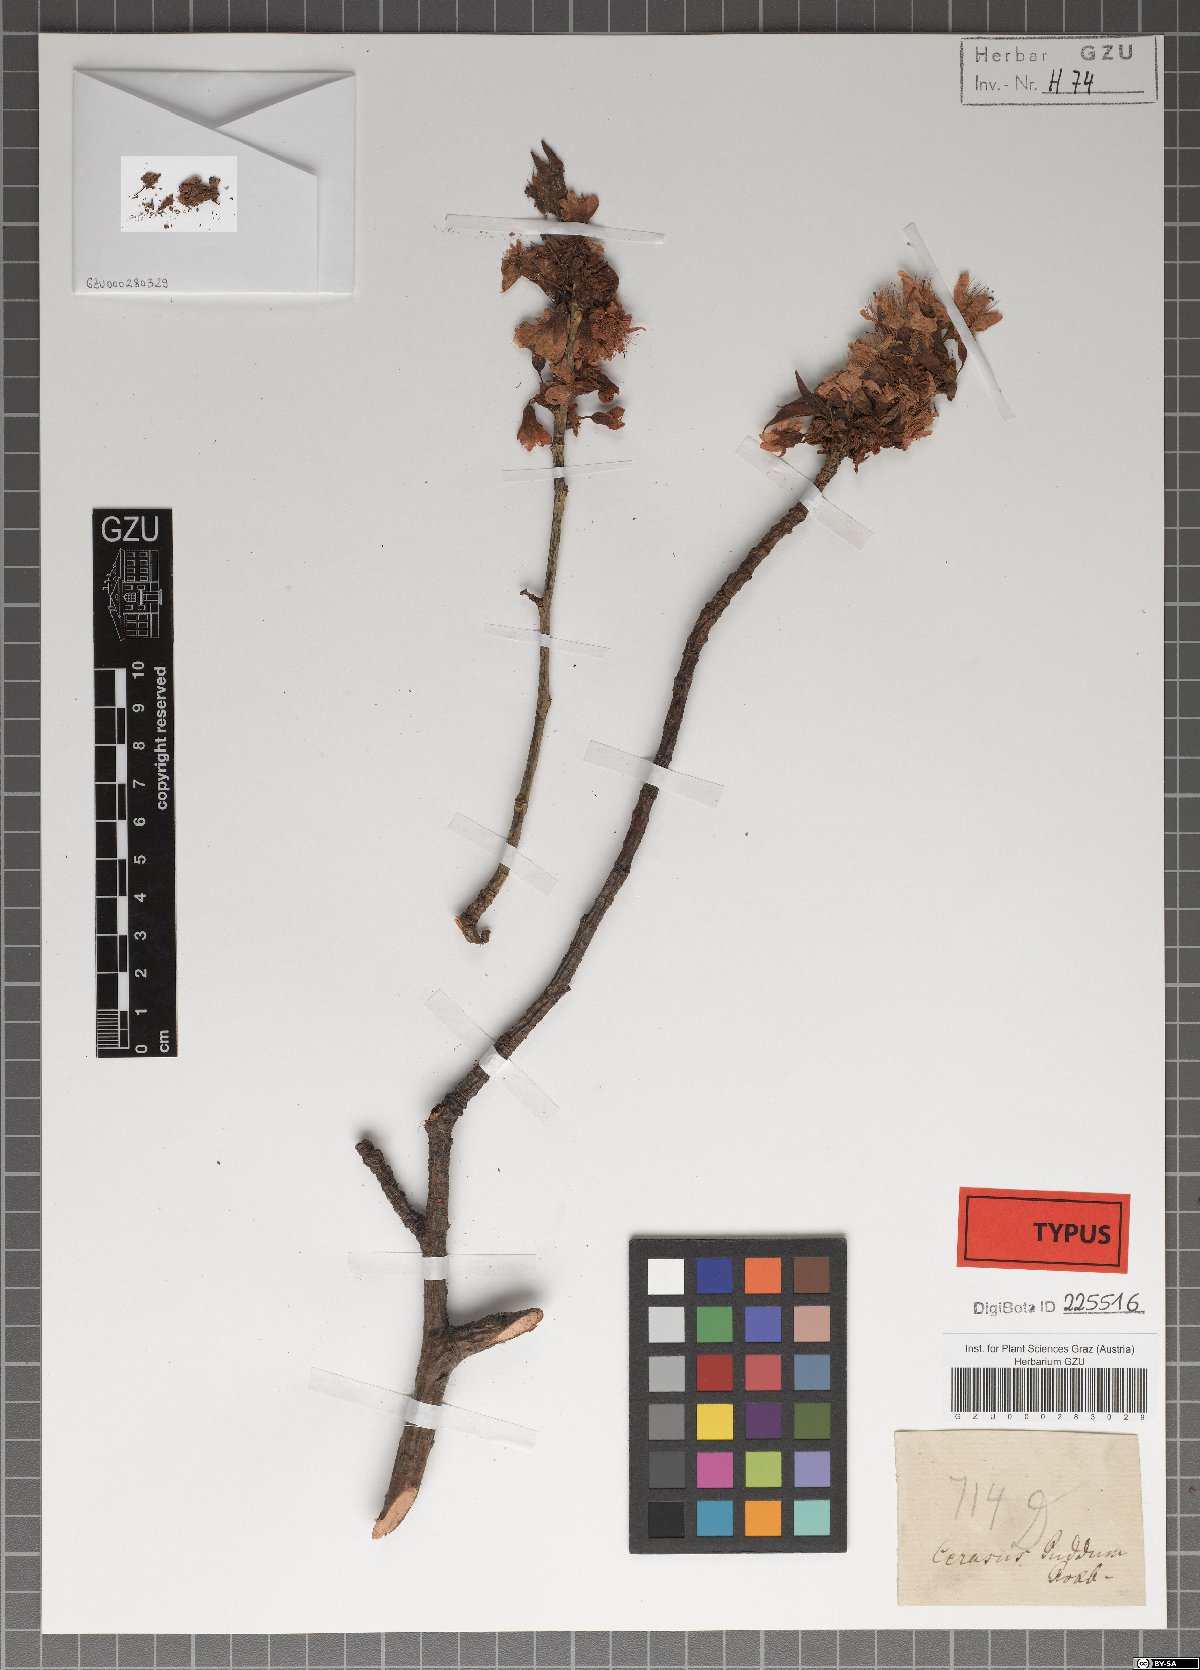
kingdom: Plantae
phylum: Tracheophyta
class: Magnoliopsida
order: Rosales
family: Rosaceae
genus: Prunus
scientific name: Prunus cerasoides
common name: Wild himalayan cherry
